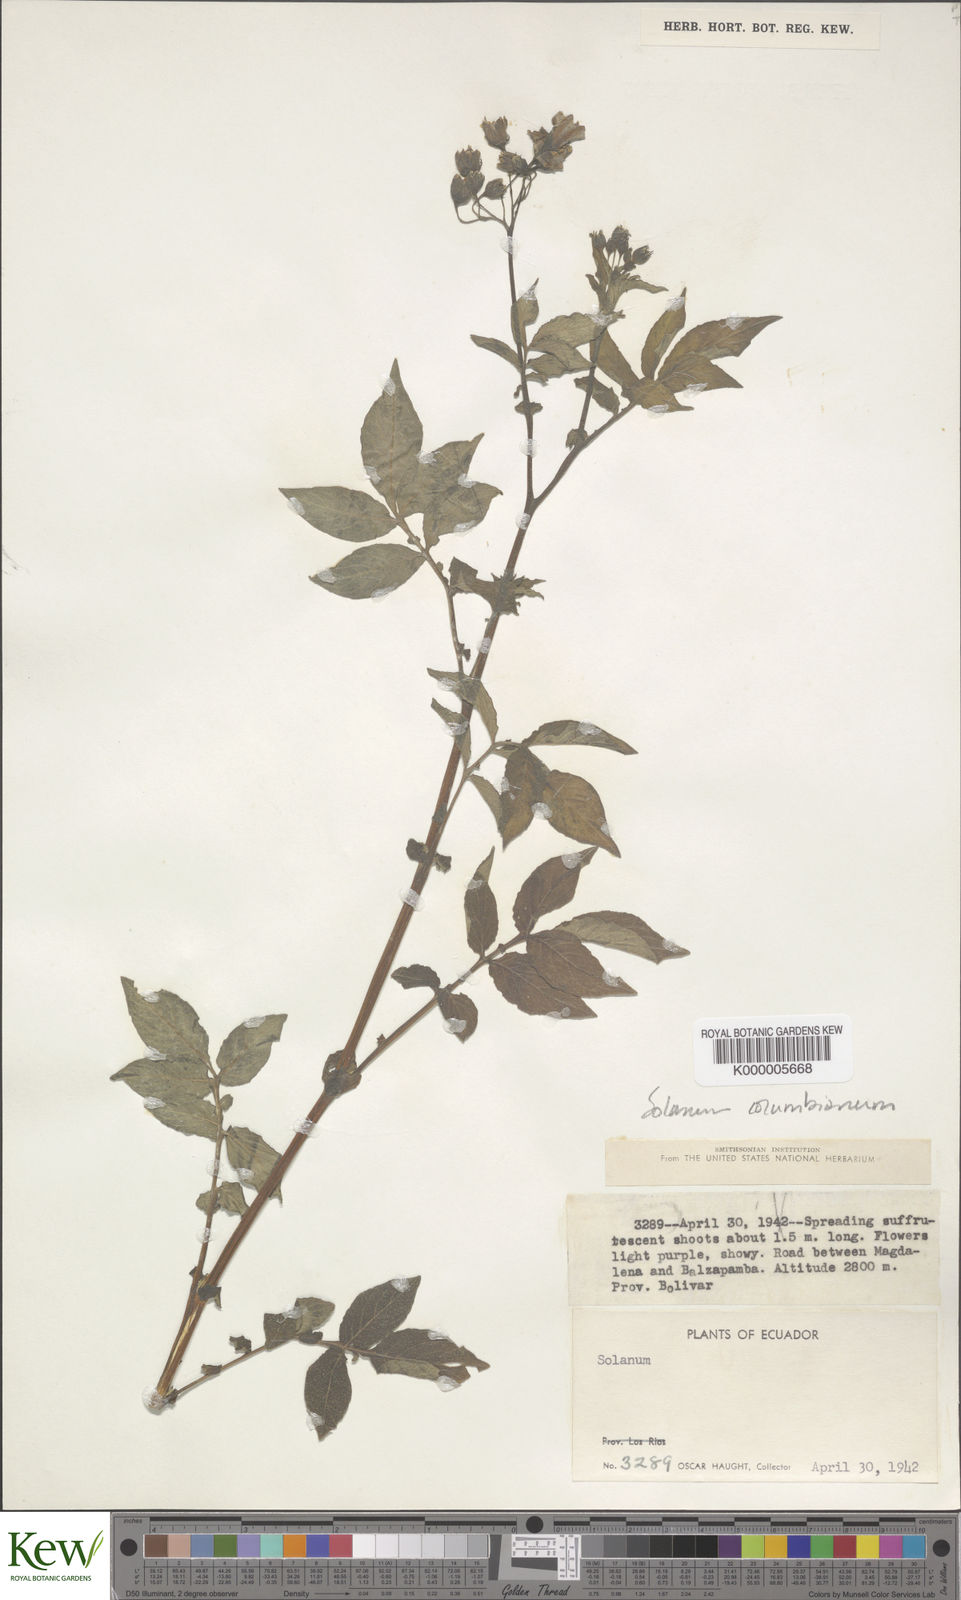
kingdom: Plantae
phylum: Tracheophyta
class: Magnoliopsida
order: Solanales
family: Solanaceae
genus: Solanum
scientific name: Solanum andreanum
